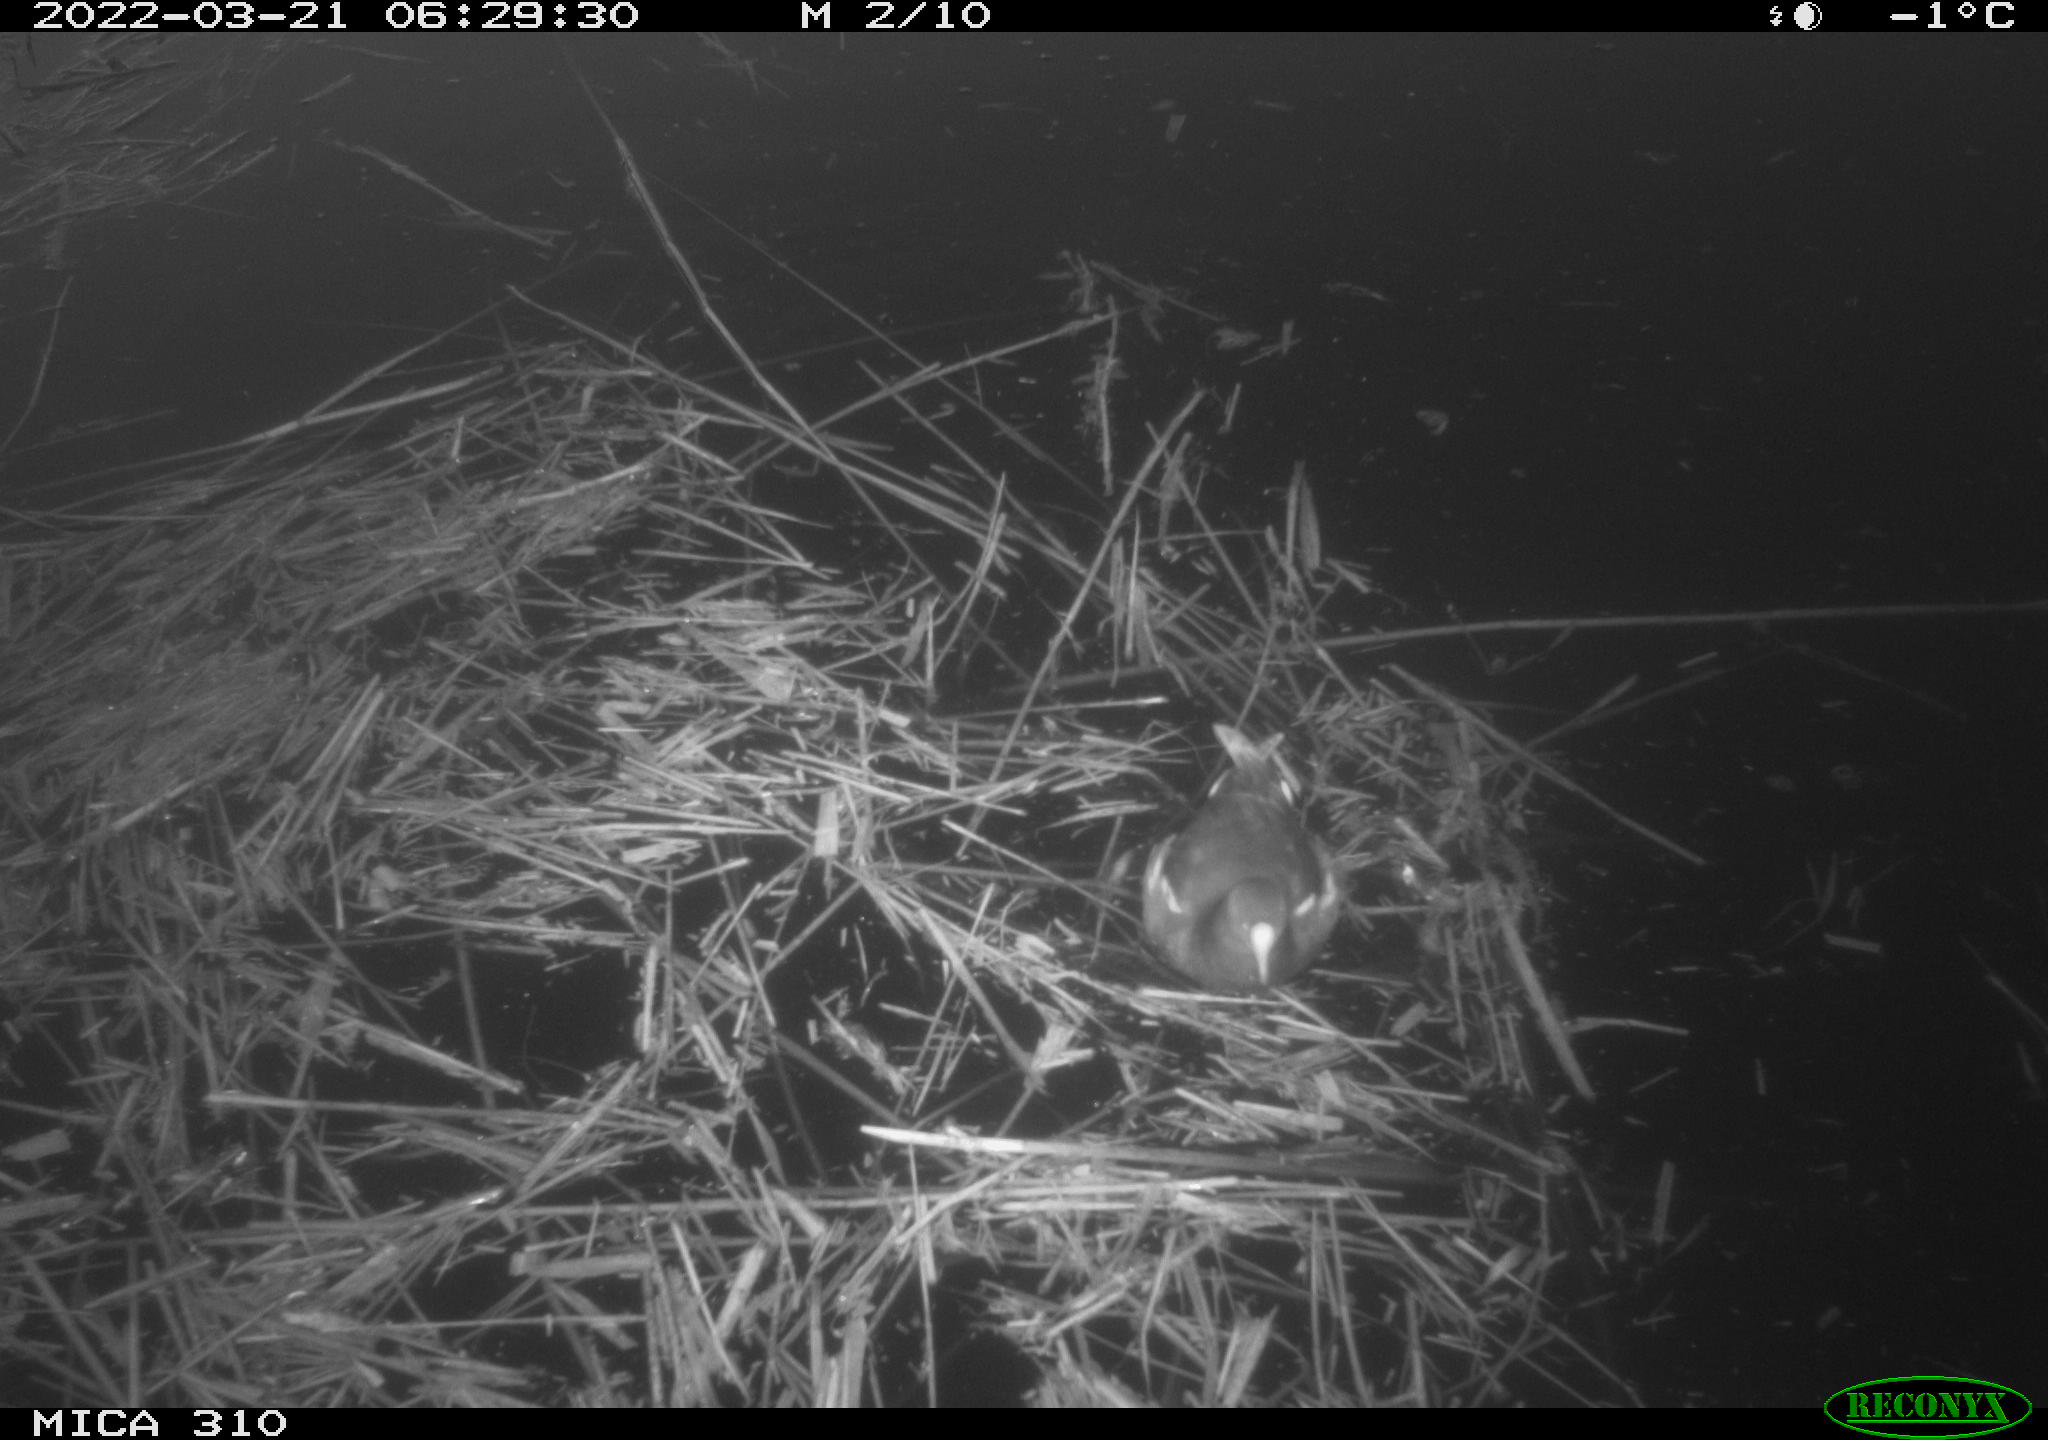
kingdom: Animalia
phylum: Chordata
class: Aves
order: Gruiformes
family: Rallidae
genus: Gallinula
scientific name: Gallinula chloropus
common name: Common moorhen
